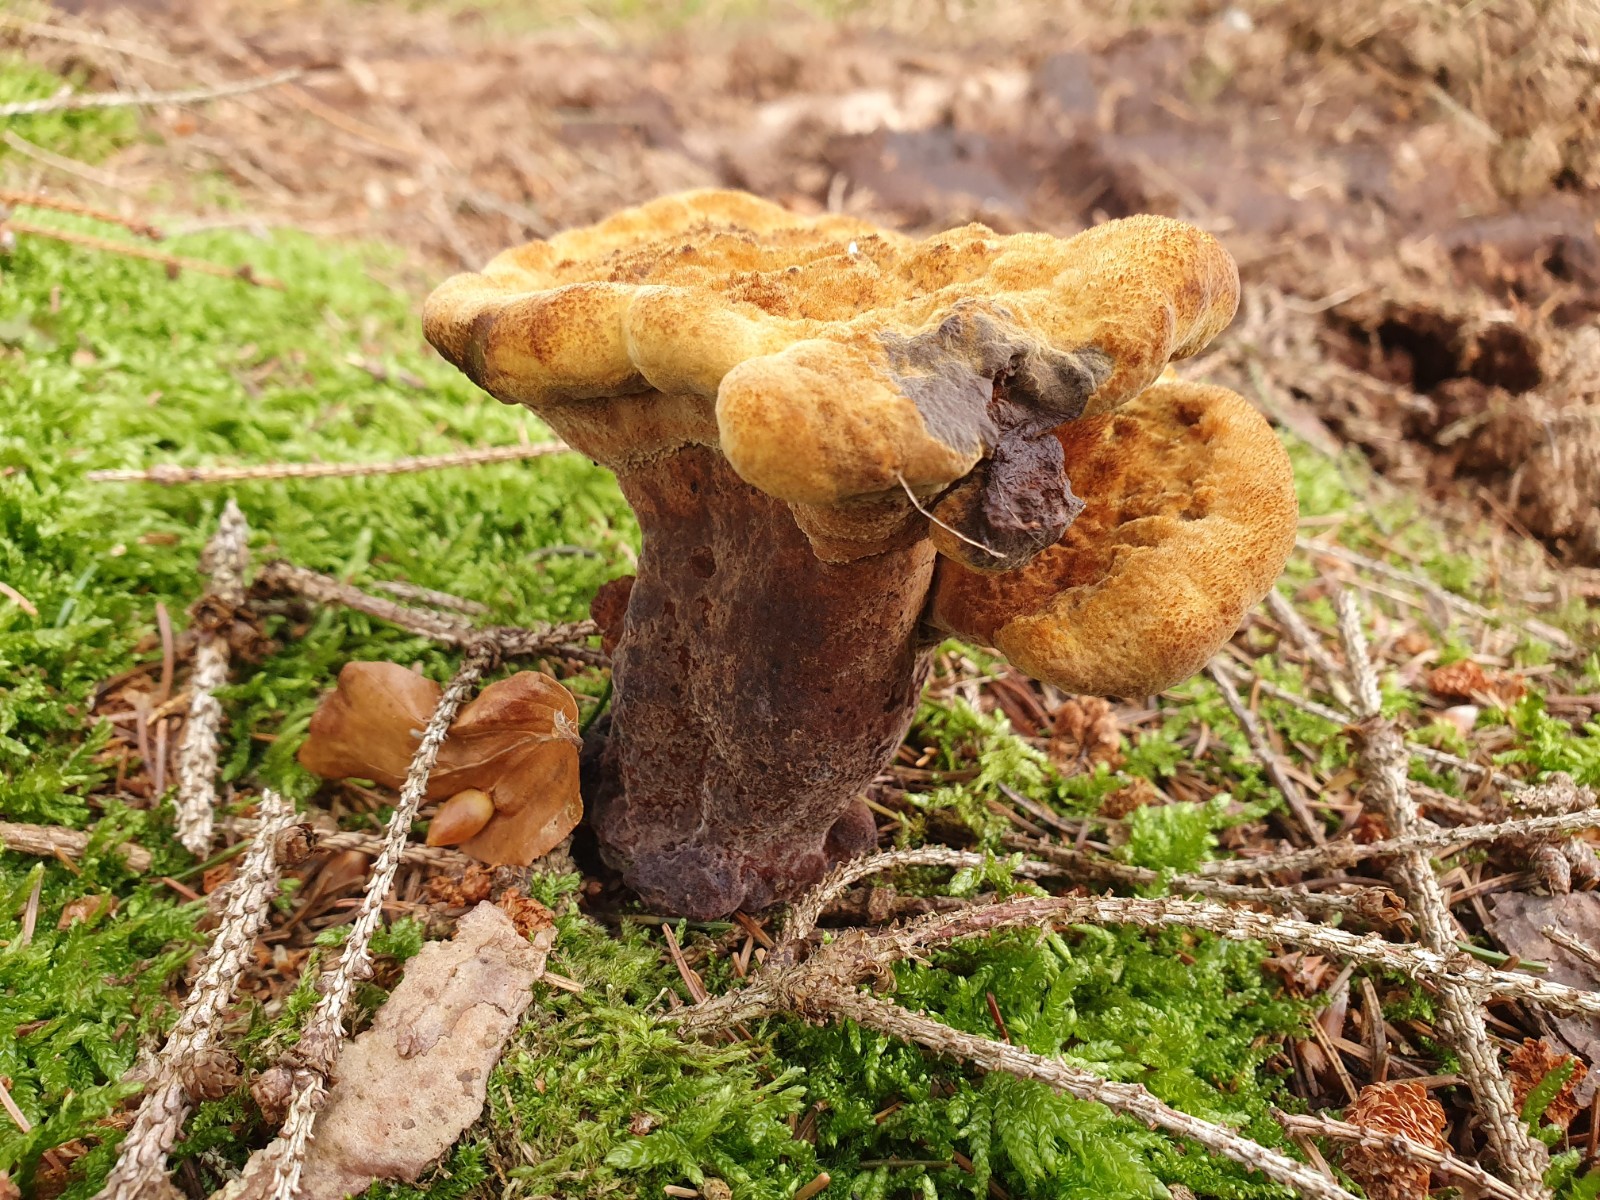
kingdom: Fungi
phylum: Basidiomycota
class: Agaricomycetes
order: Polyporales
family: Laetiporaceae
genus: Phaeolus
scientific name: Phaeolus schweinitzii
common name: brunporesvamp
